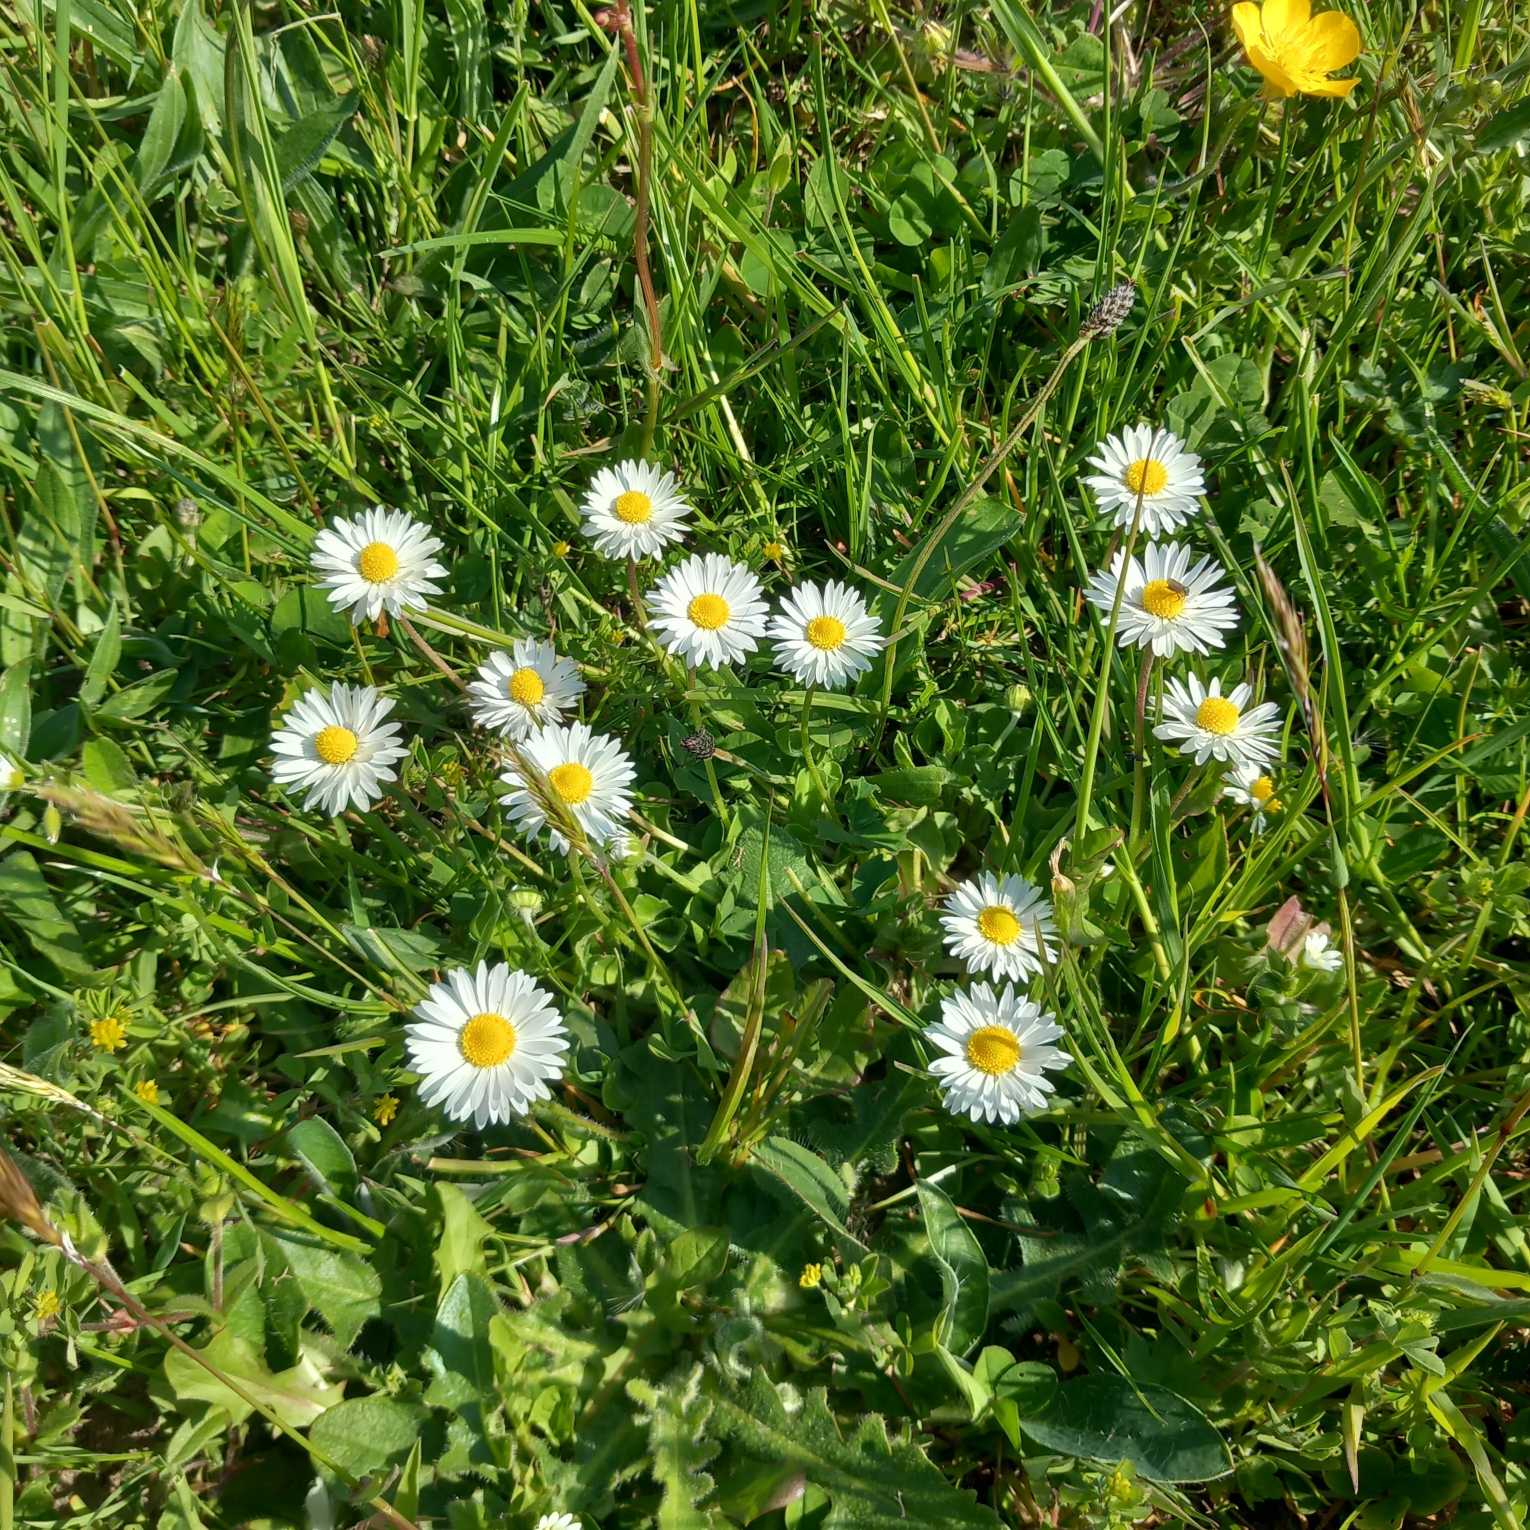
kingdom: Plantae
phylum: Tracheophyta
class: Magnoliopsida
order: Asterales
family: Asteraceae
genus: Bellis
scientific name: Bellis perennis
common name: Tusindfryd
